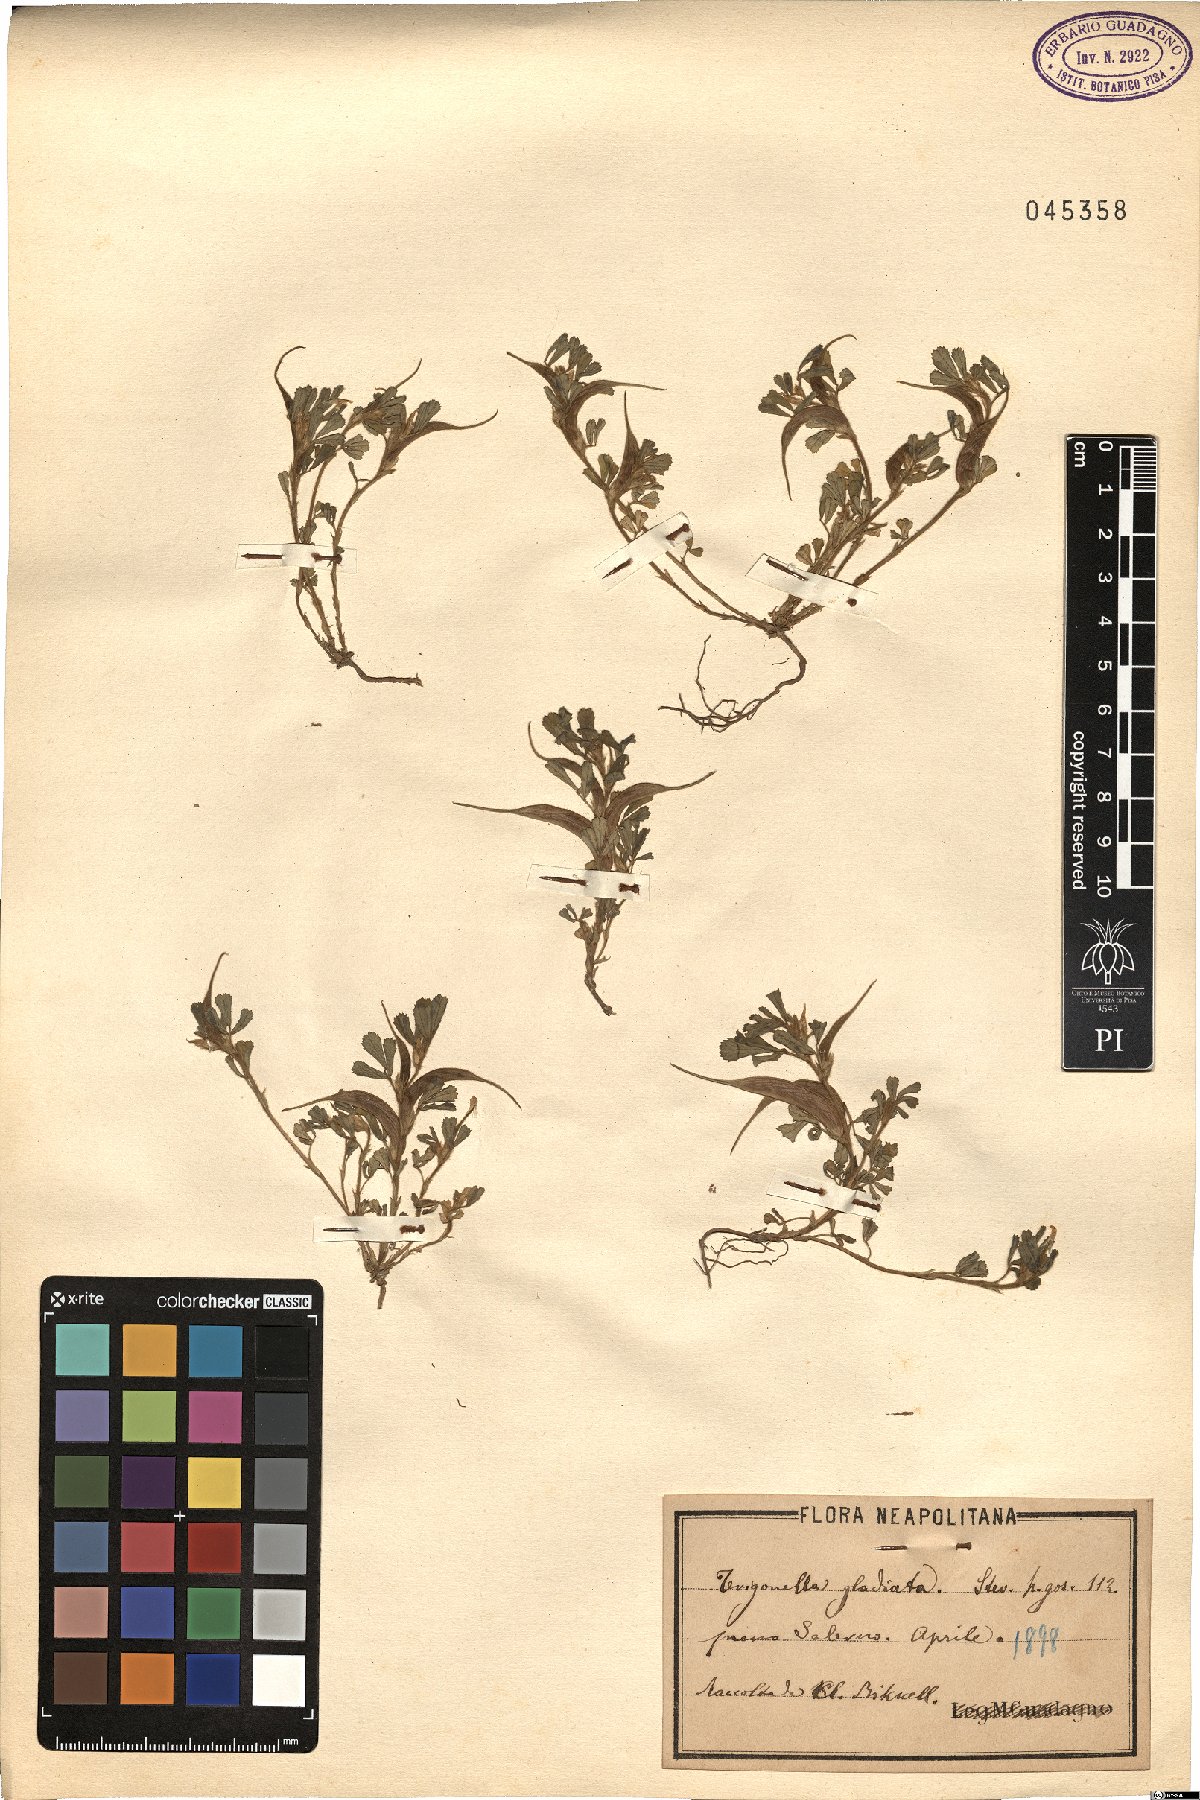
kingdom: Plantae
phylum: Tracheophyta
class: Magnoliopsida
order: Fabales
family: Fabaceae
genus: Trigonella
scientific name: Trigonella gladiata
